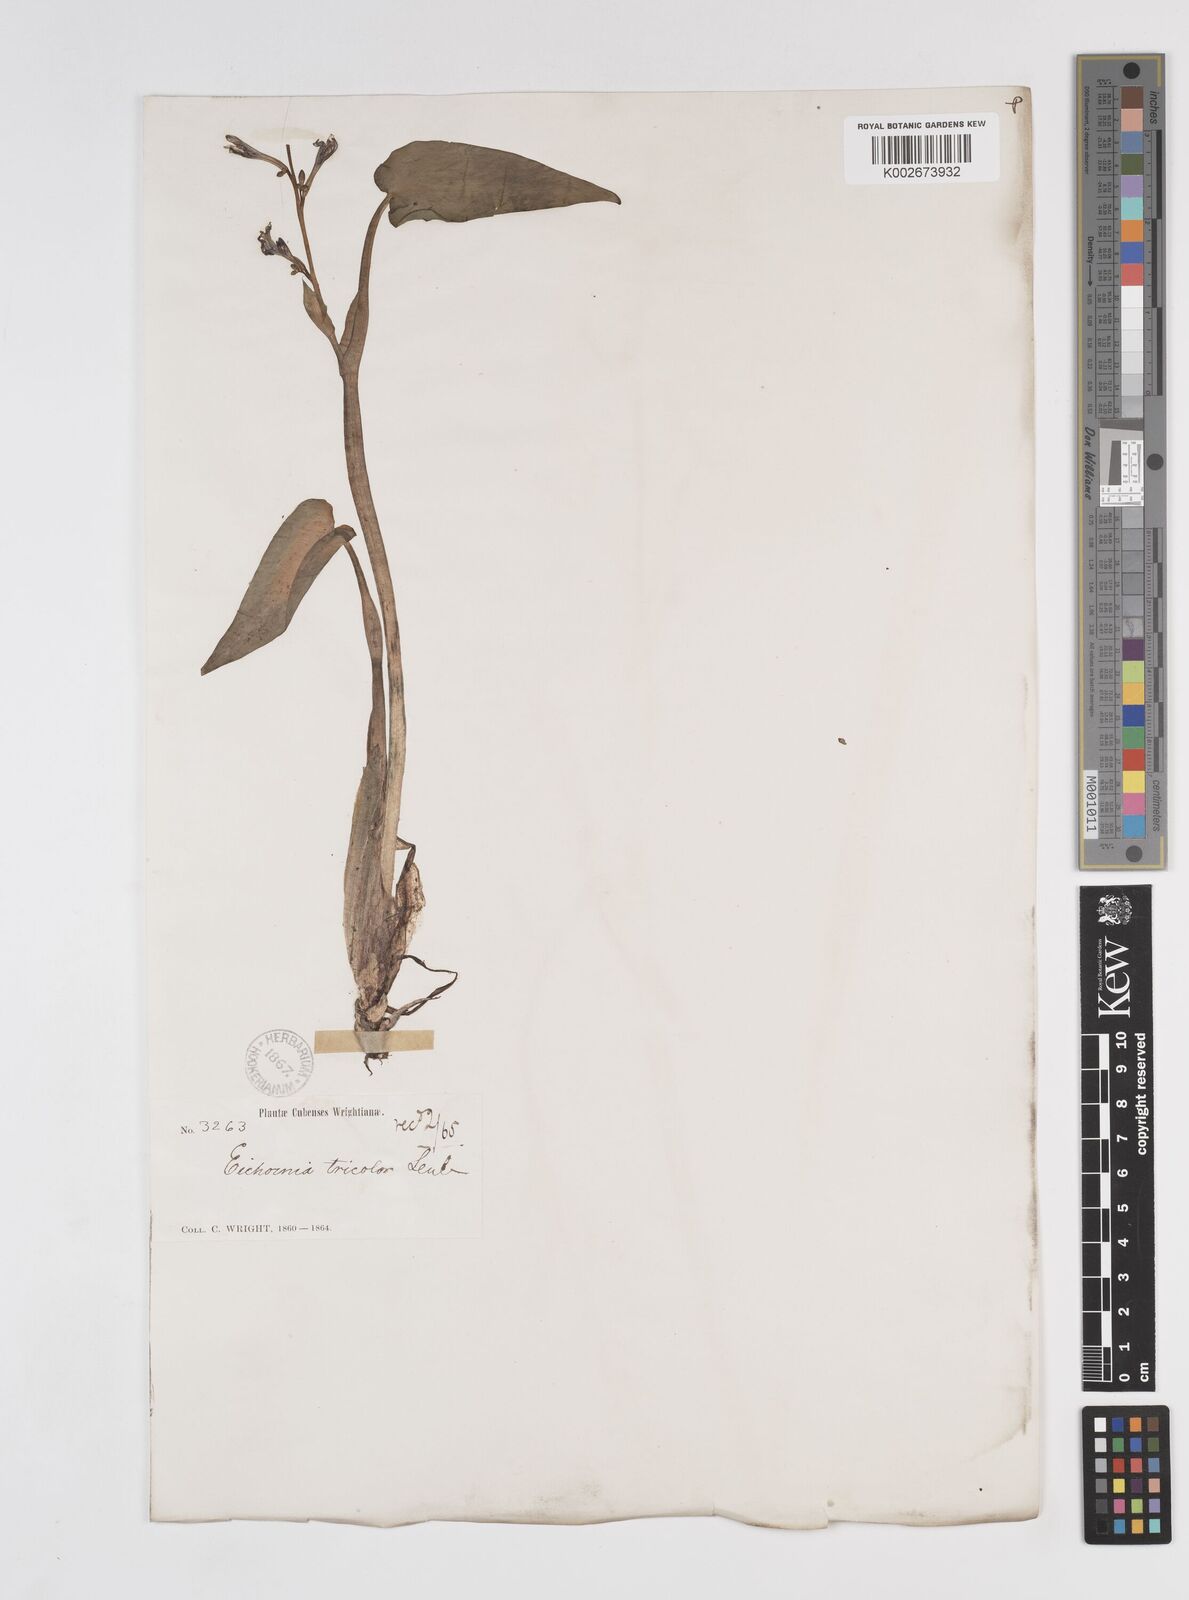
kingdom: Plantae
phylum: Tracheophyta
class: Liliopsida
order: Commelinales
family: Pontederiaceae
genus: Pontederia
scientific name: Pontederia paniculata
